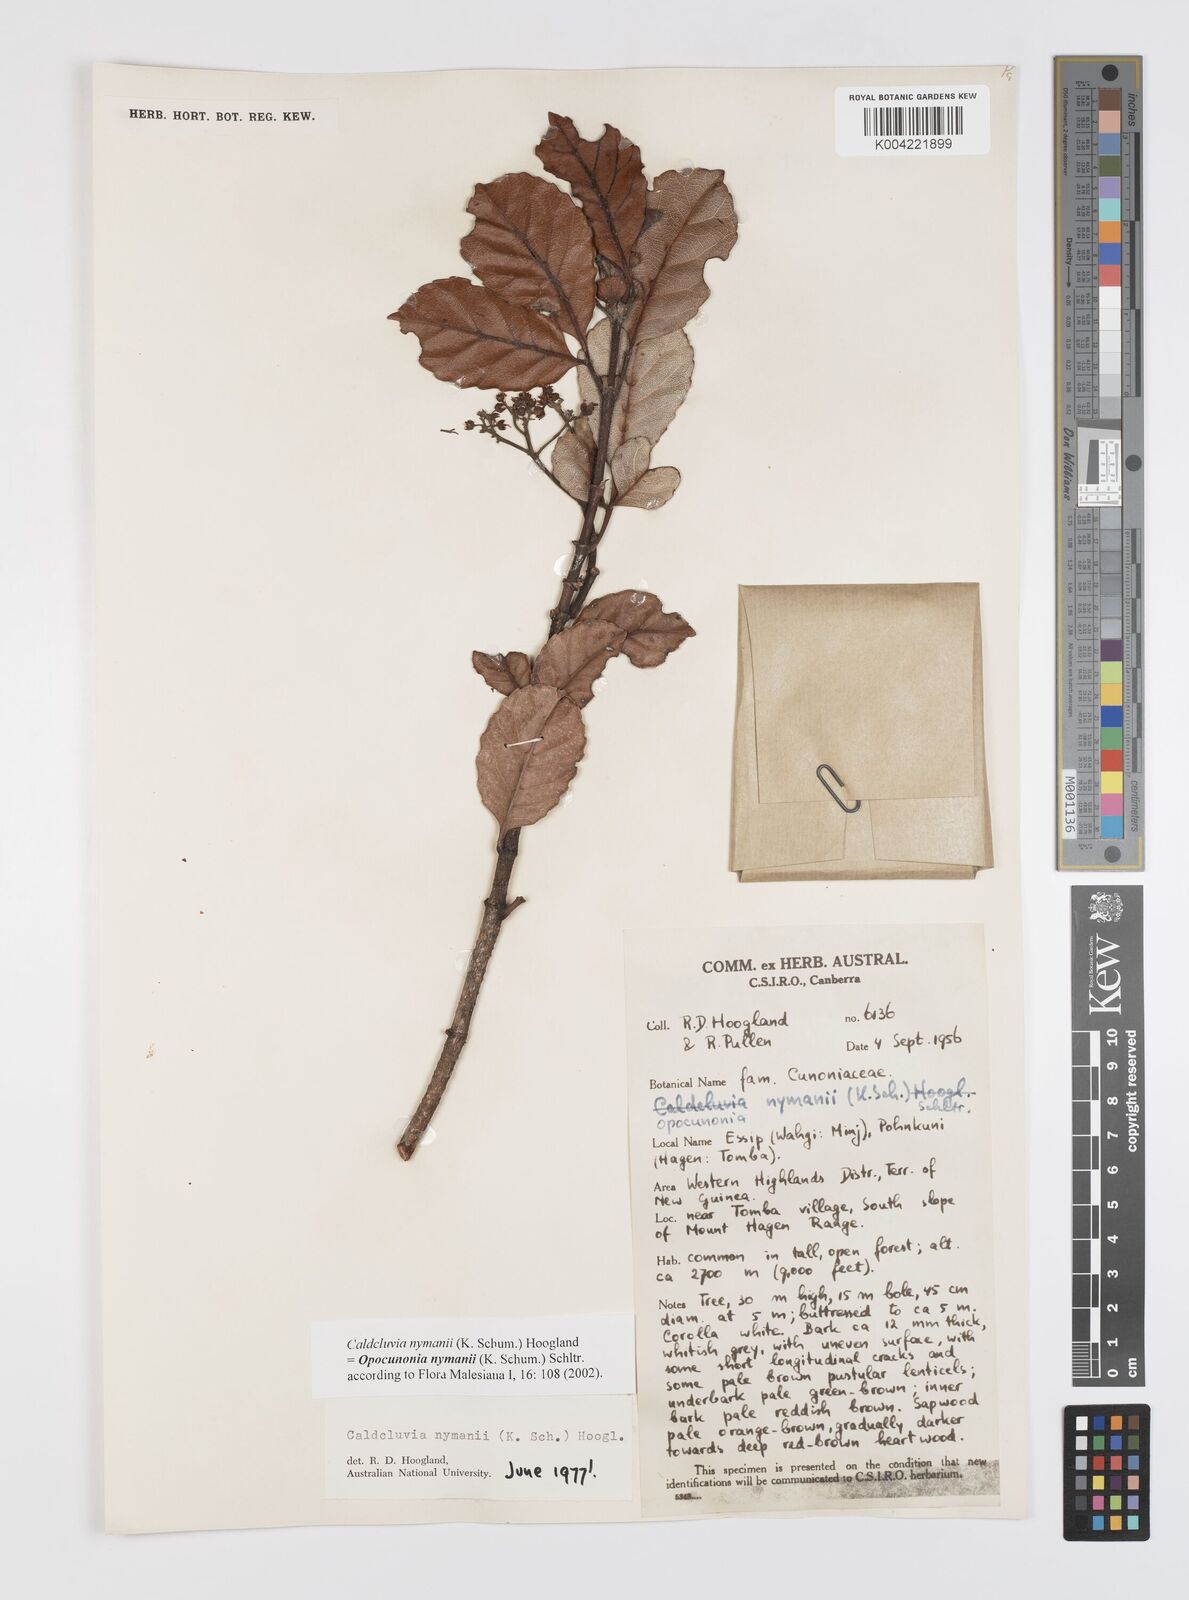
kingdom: Plantae
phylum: Tracheophyta
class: Magnoliopsida
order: Oxalidales
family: Cunoniaceae
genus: Opocunonia
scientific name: Opocunonia nymanii
